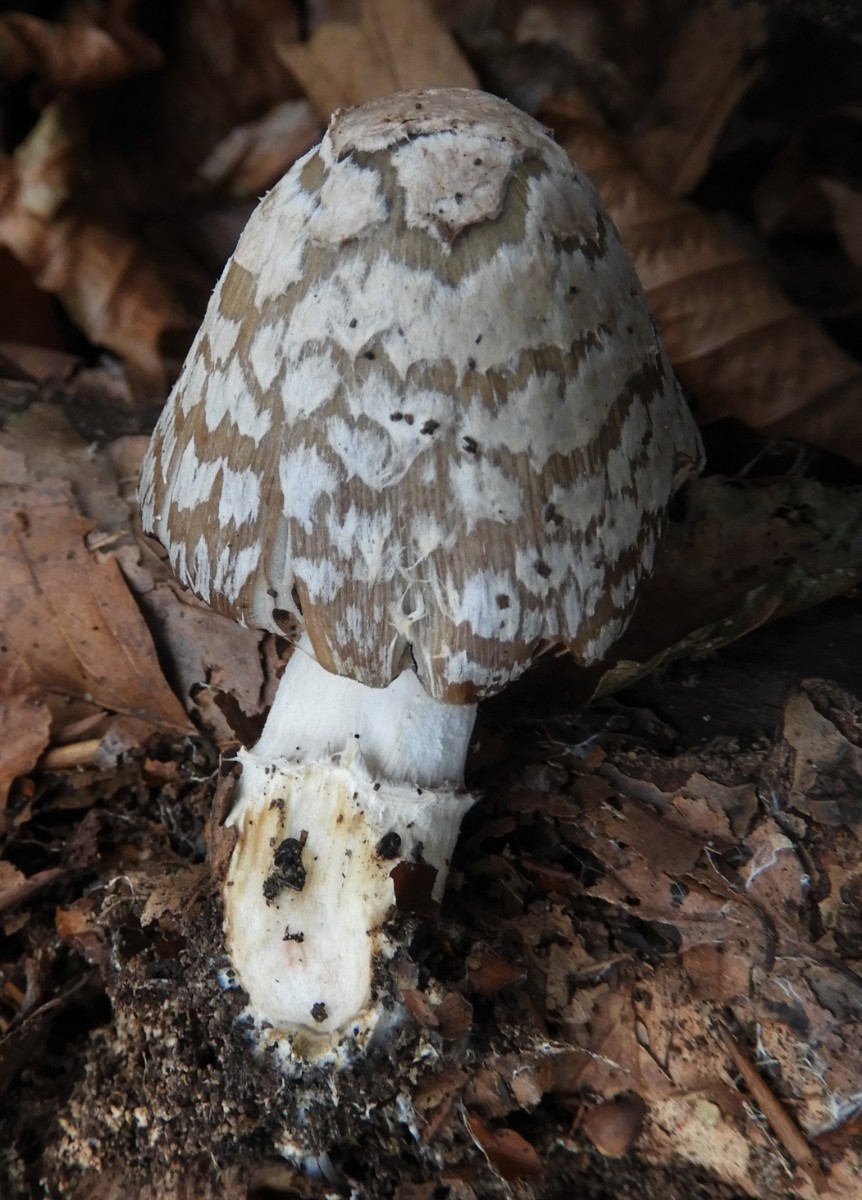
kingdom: Fungi
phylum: Basidiomycota
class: Agaricomycetes
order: Agaricales
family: Psathyrellaceae
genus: Coprinopsis
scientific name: Coprinopsis picacea
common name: skade-blækhat
